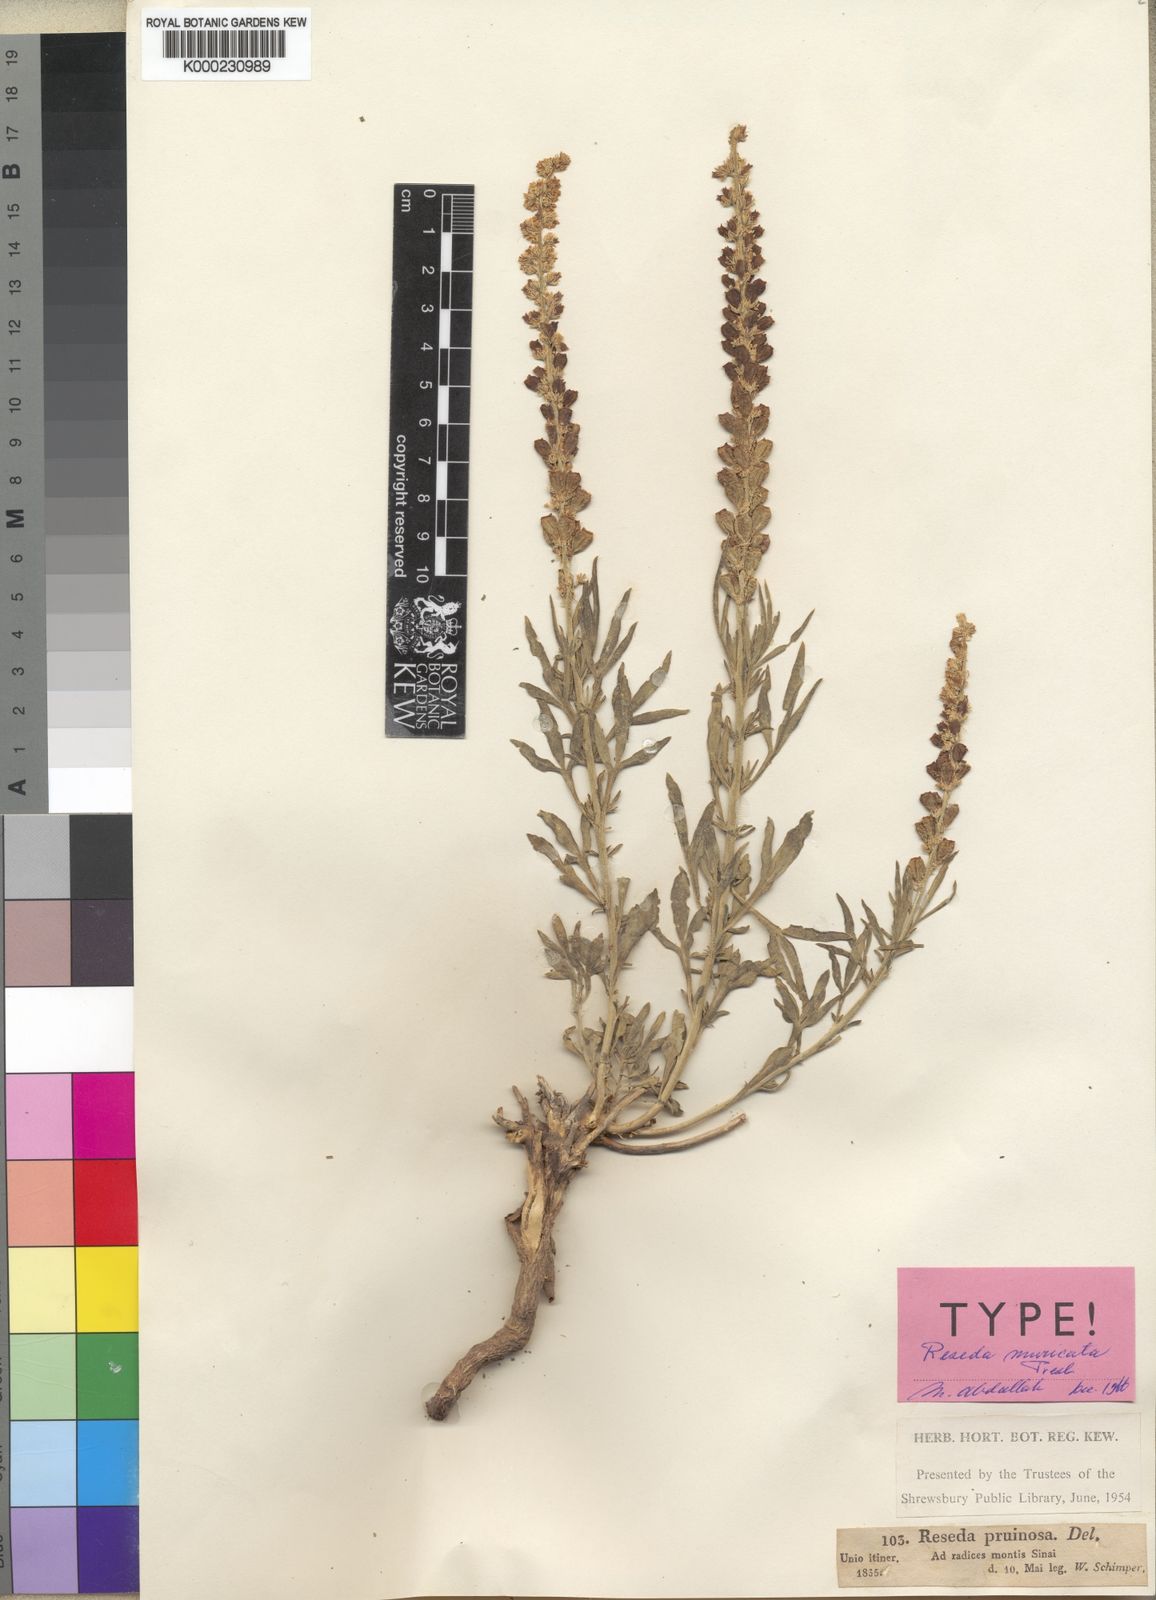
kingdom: Plantae
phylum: Tracheophyta
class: Magnoliopsida
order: Brassicales
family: Resedaceae
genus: Reseda
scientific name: Reseda muricata
